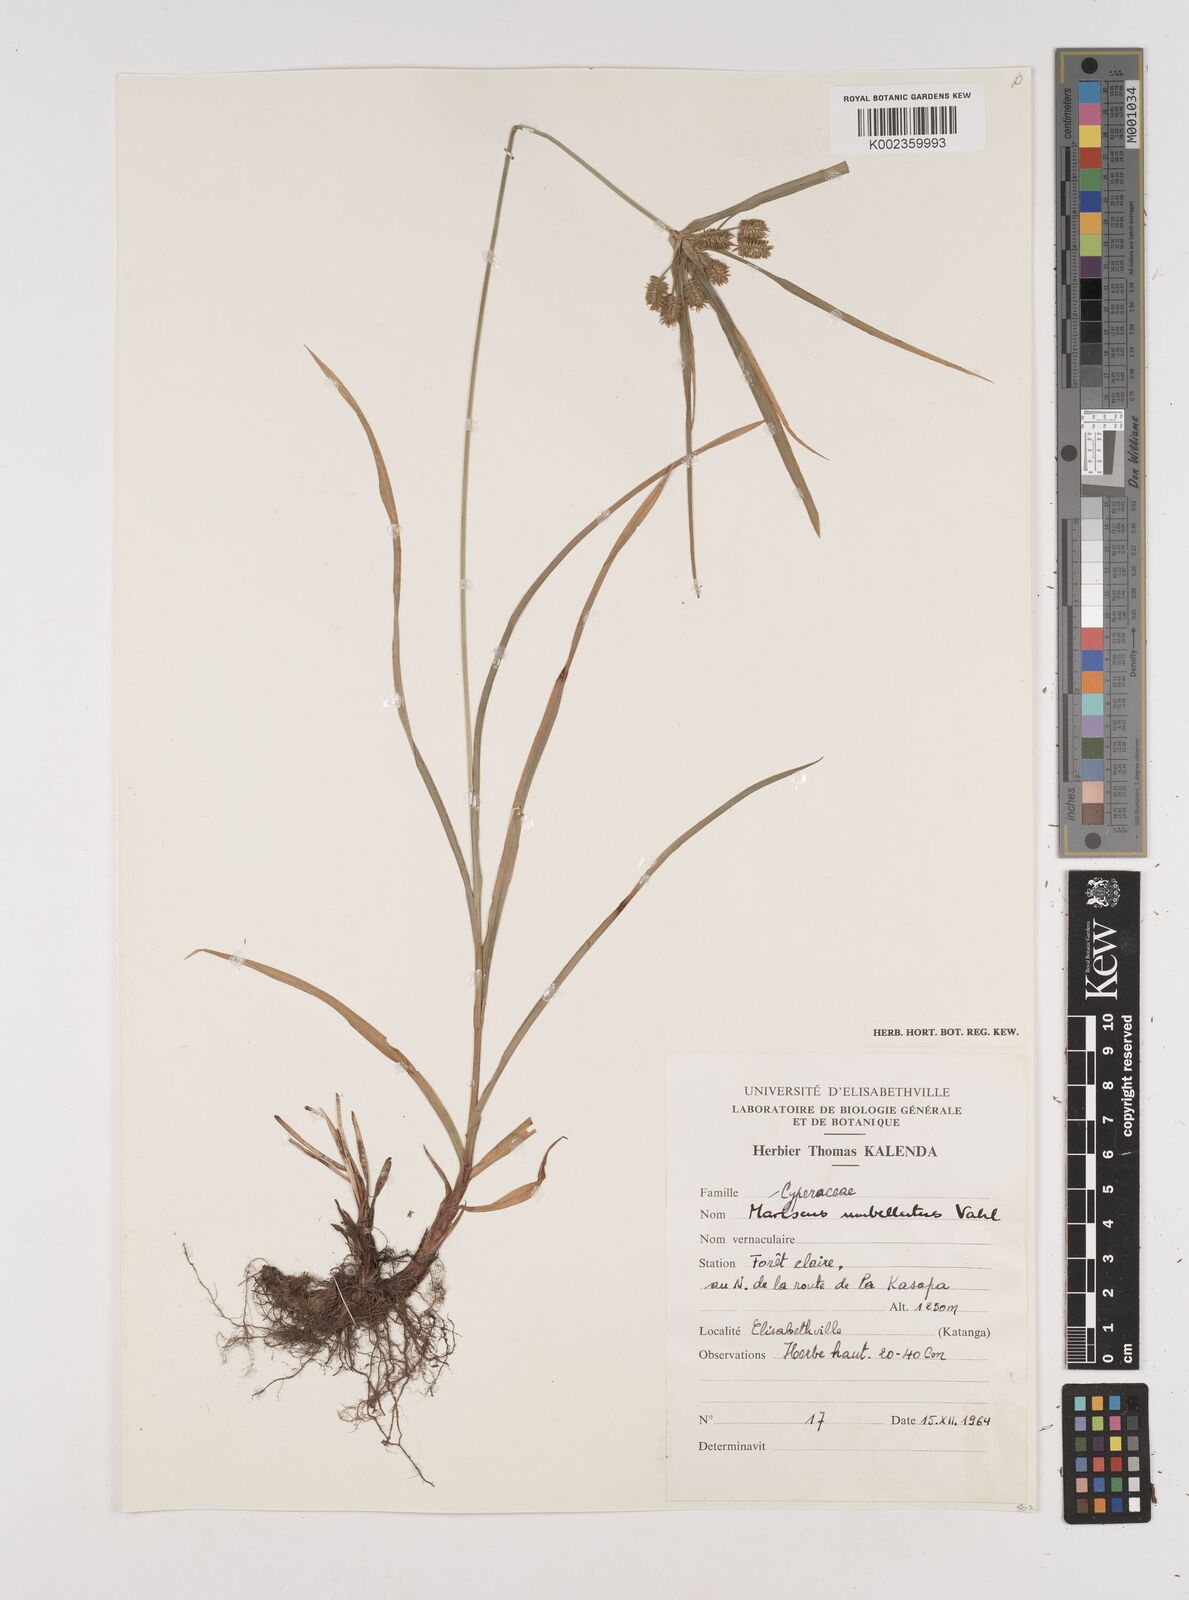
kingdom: Plantae
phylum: Tracheophyta
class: Liliopsida
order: Poales
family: Cyperaceae
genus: Cyperus
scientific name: Cyperus cyperoides
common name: Pacific island flat sedge
